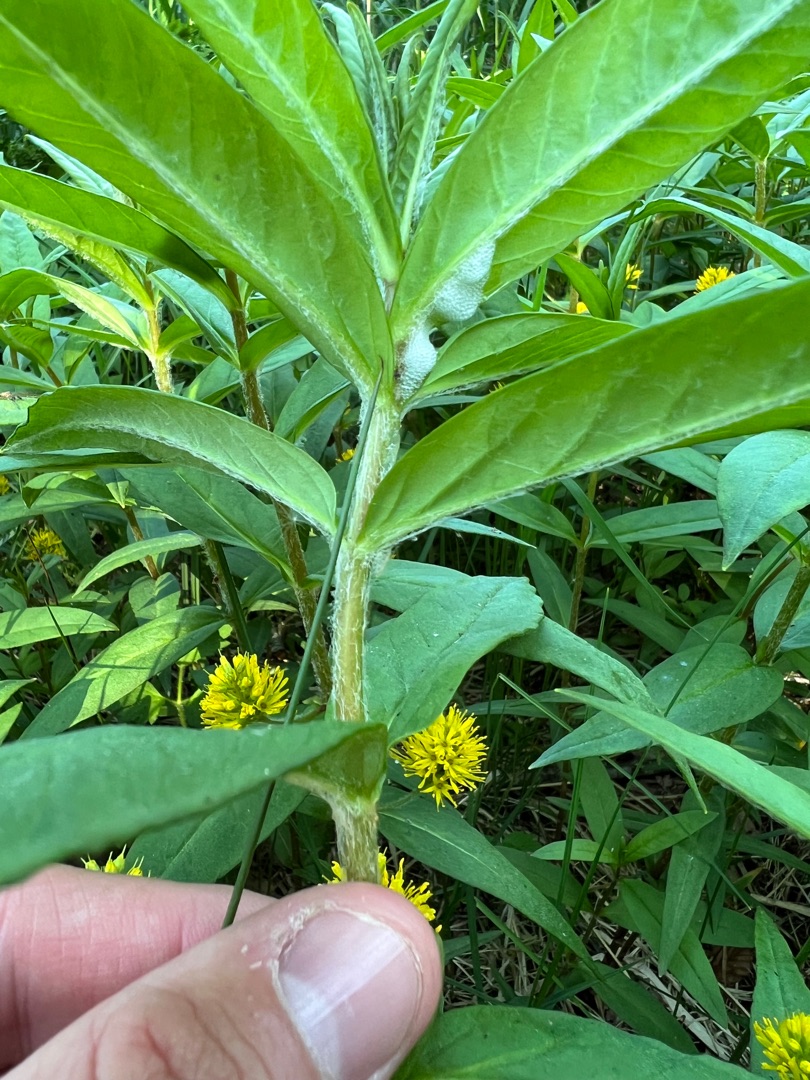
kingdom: Plantae
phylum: Tracheophyta
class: Magnoliopsida
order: Ericales
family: Primulaceae
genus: Lysimachia
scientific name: Lysimachia thyrsiflora
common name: Dusk-fredløs
